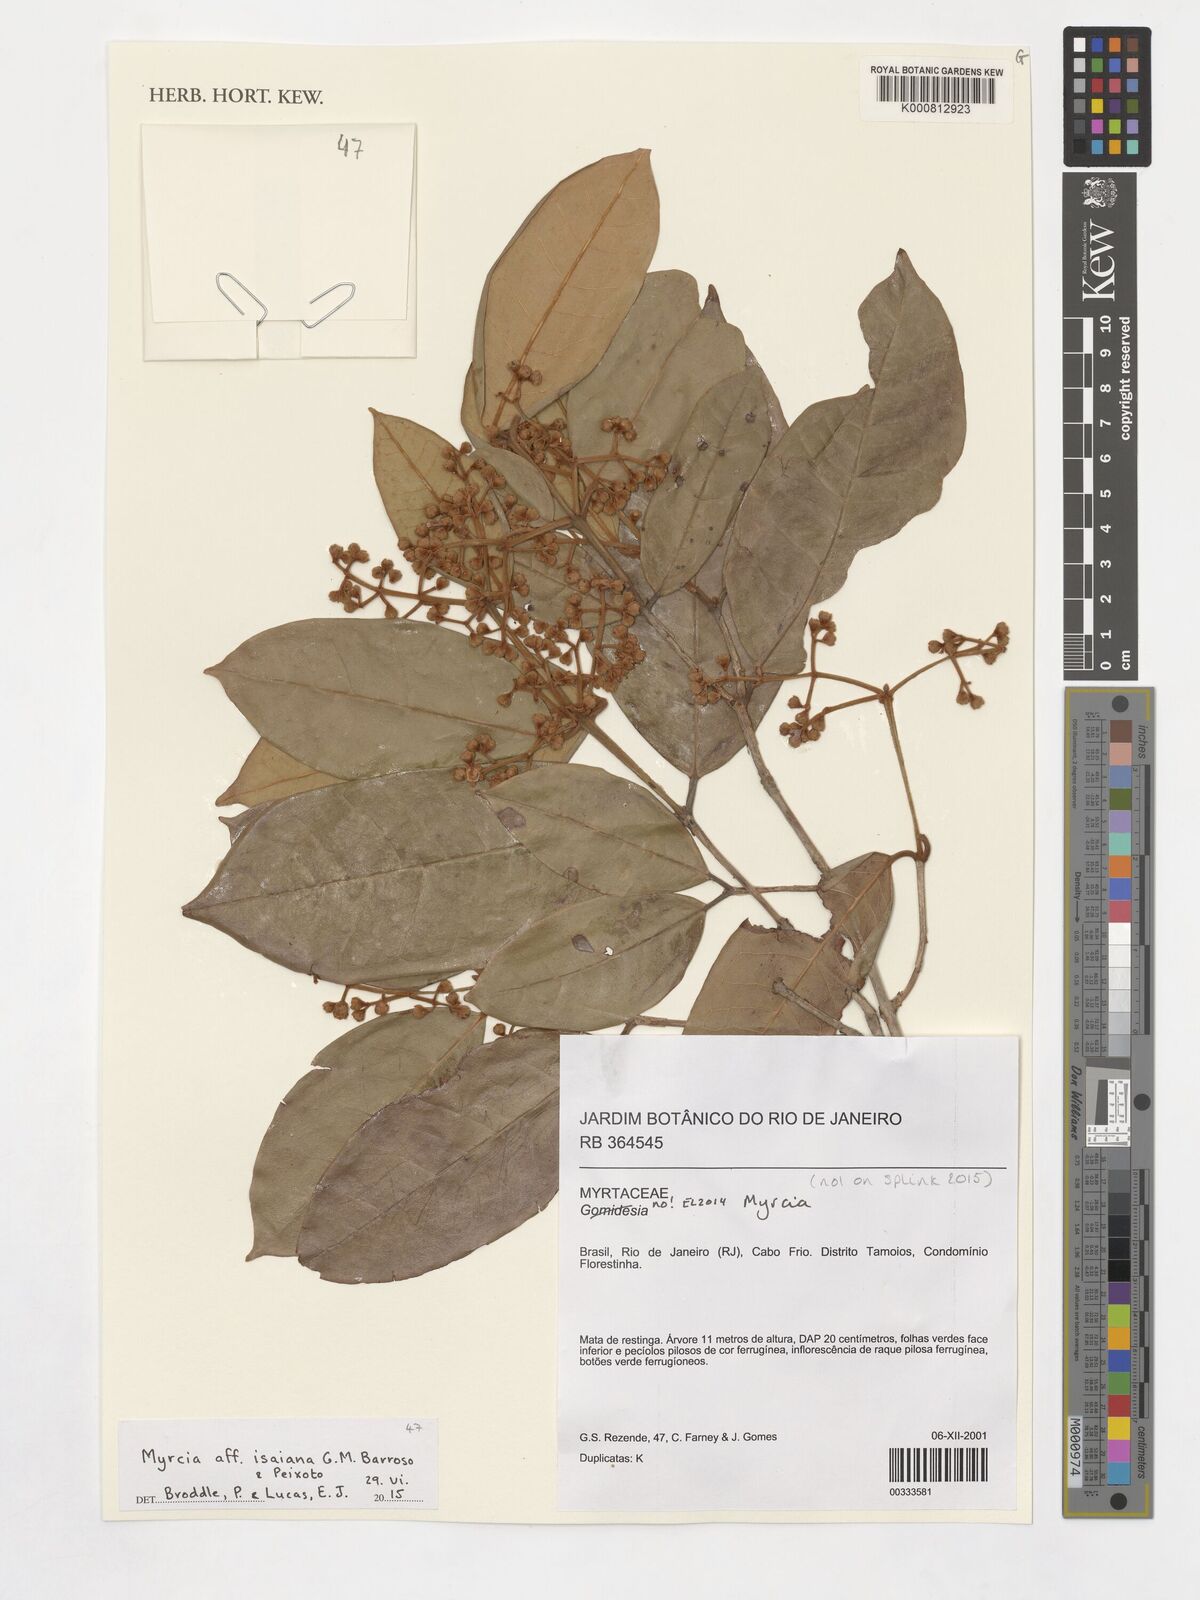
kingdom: Plantae
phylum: Tracheophyta
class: Magnoliopsida
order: Myrtales
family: Myrtaceae
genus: Myrcia
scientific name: Myrcia isaiana
